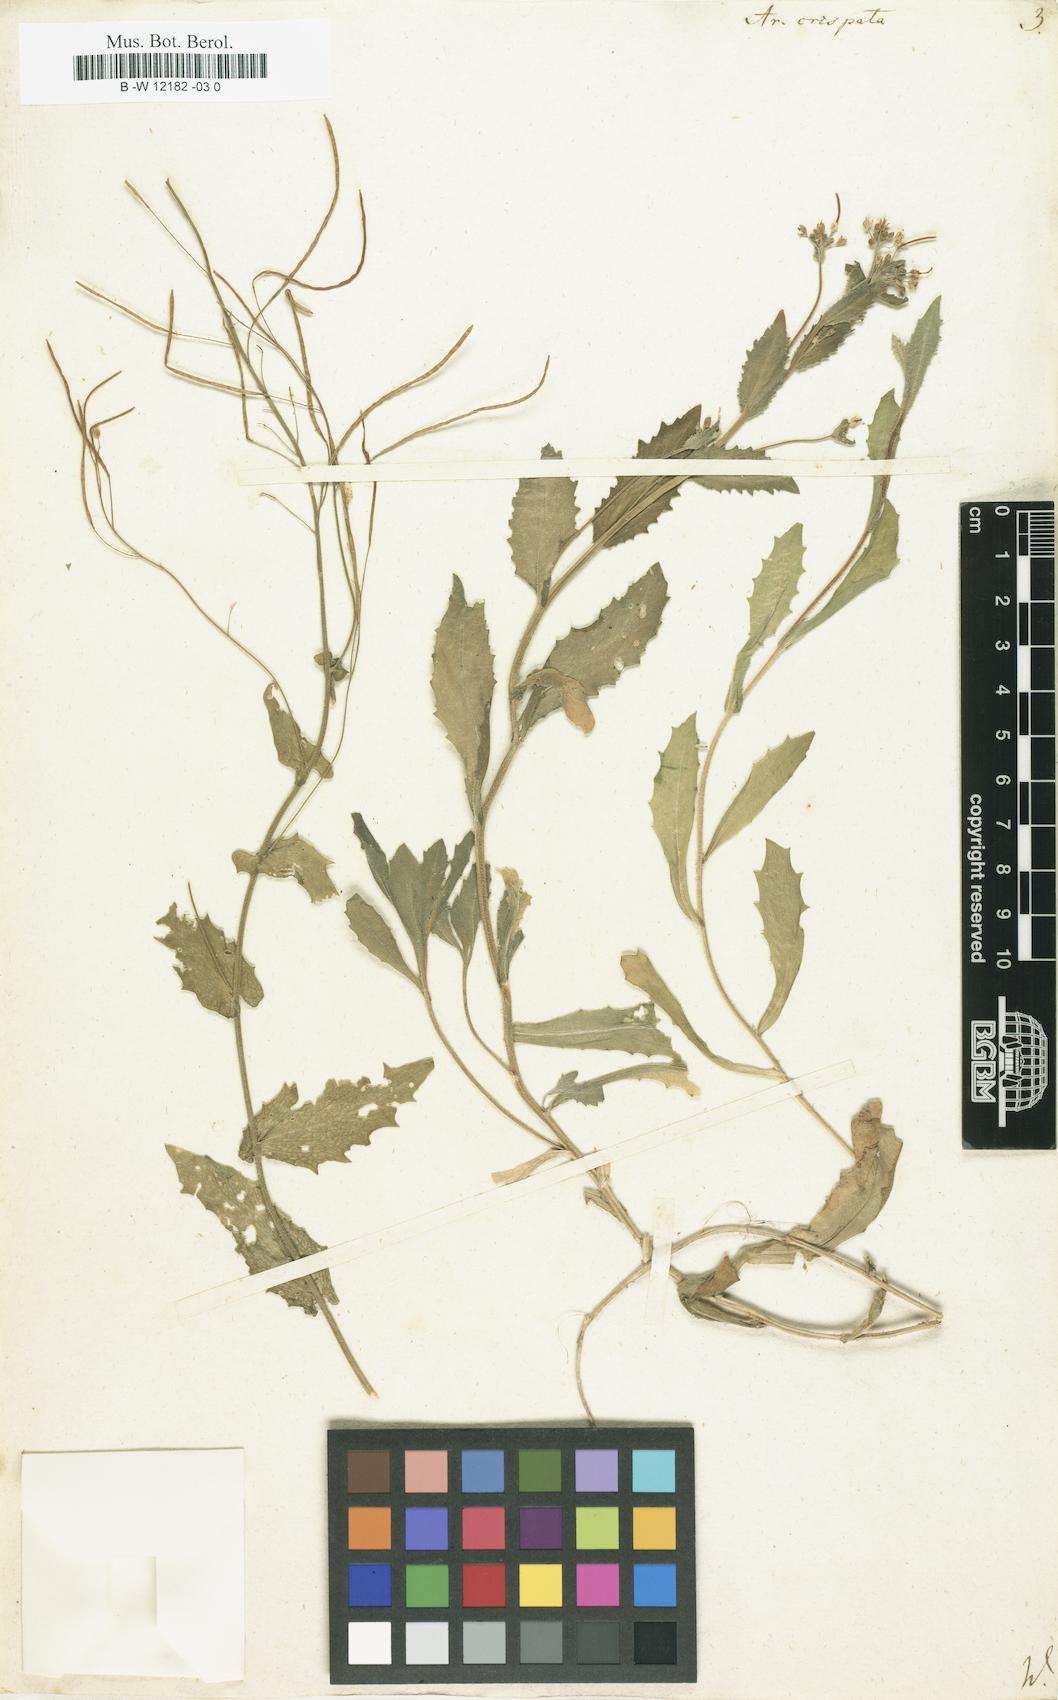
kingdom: Plantae
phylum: Tracheophyta
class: Magnoliopsida
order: Brassicales
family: Brassicaceae
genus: Arabis
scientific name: Arabis alpina
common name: Alpine rock-cress
